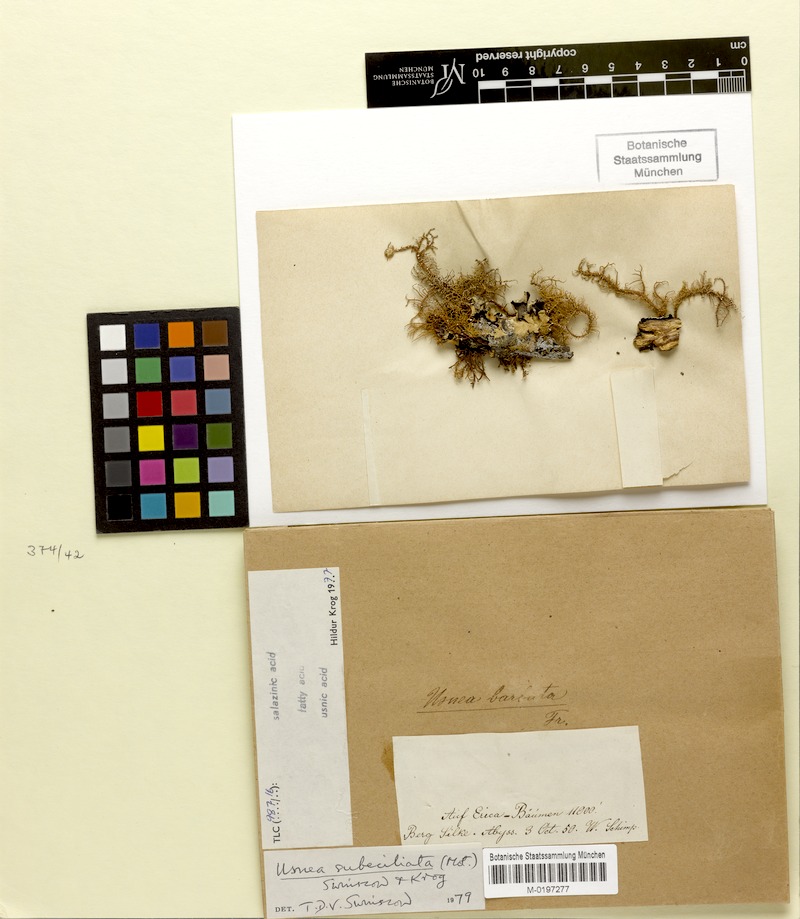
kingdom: Fungi
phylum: Ascomycota
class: Lecanoromycetes
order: Lecanorales
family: Parmeliaceae
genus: Usnea
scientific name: Usnea subeciliata
